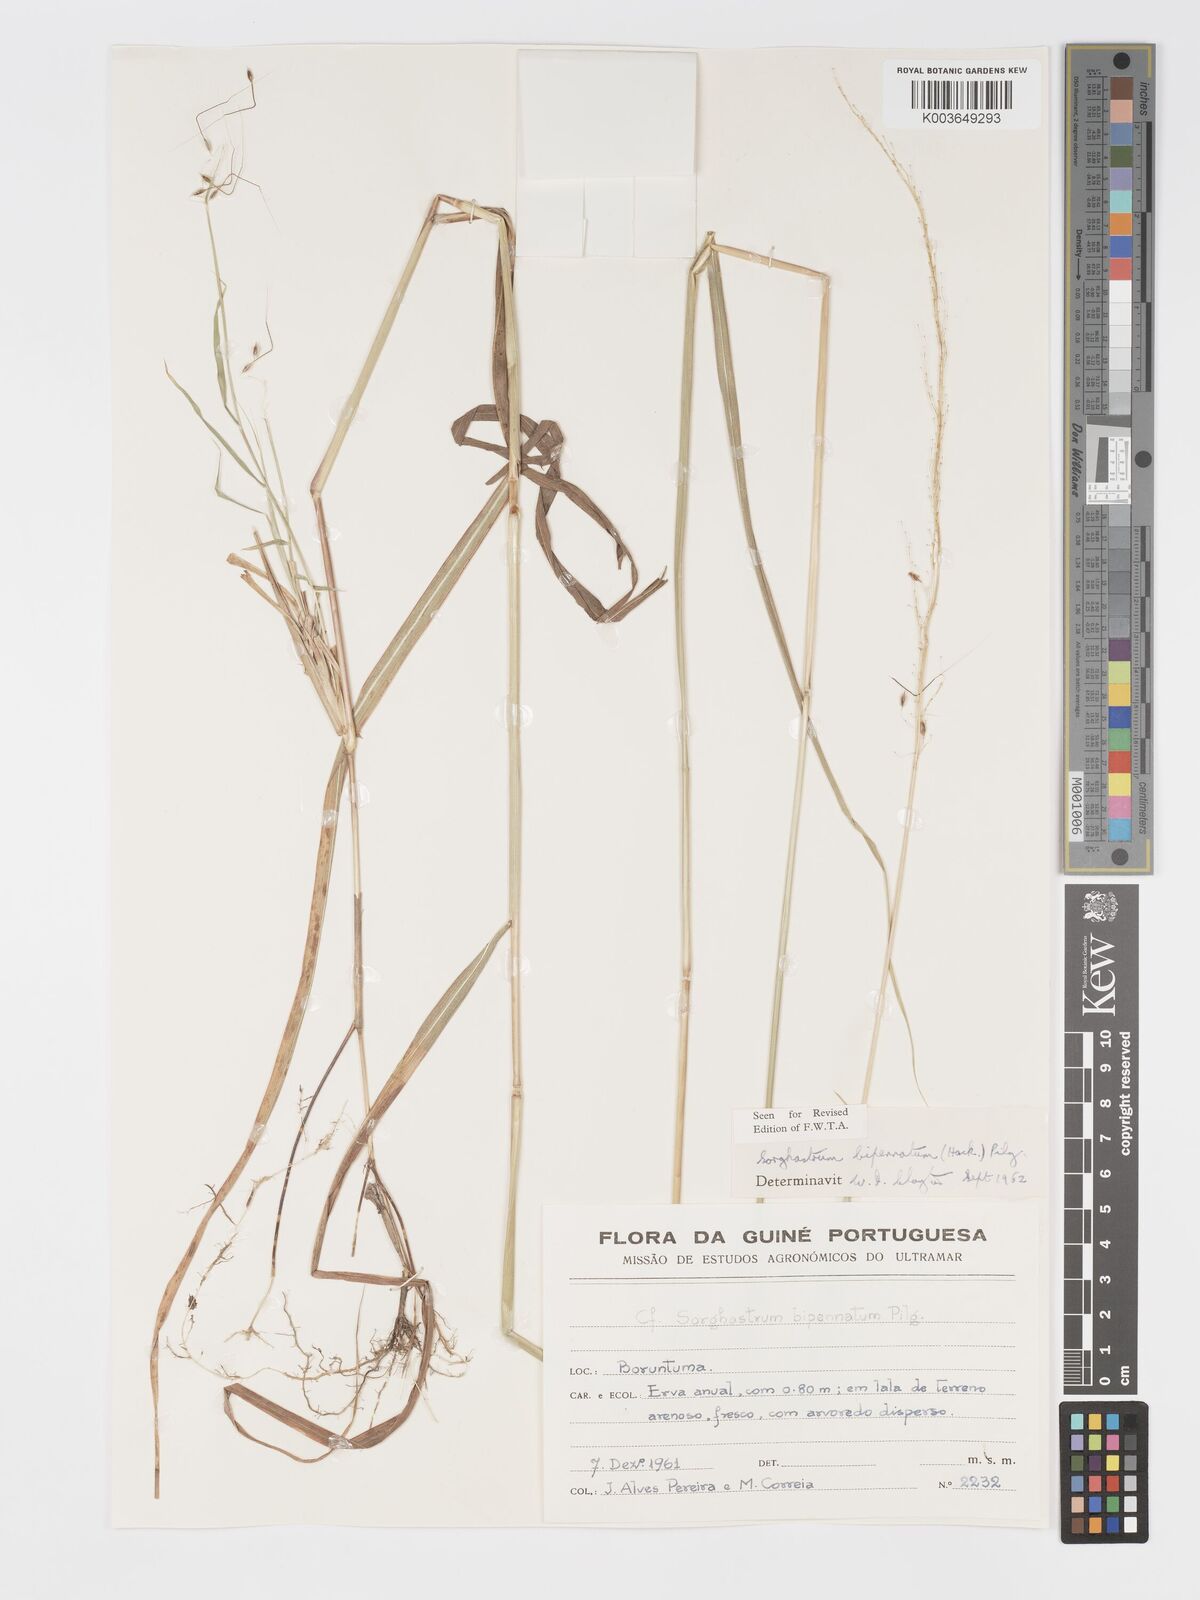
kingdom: Plantae
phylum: Tracheophyta
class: Liliopsida
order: Poales
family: Poaceae
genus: Sorghastrum
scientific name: Sorghastrum incompletum
